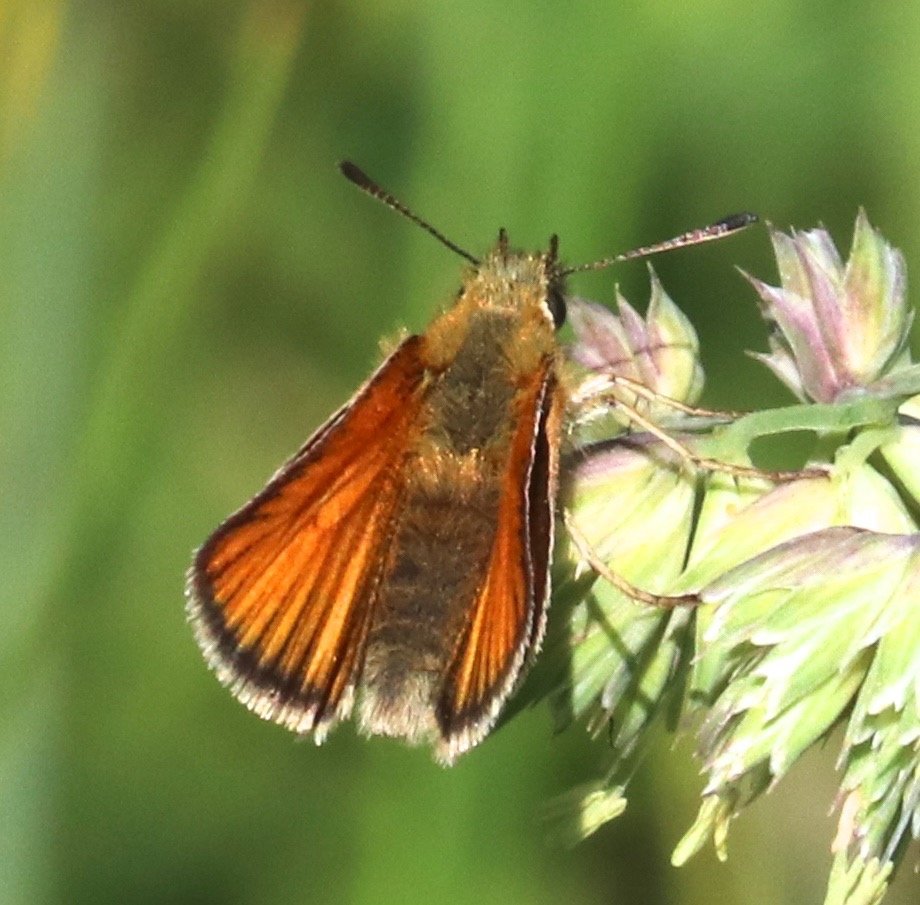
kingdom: Animalia
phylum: Arthropoda
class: Insecta
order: Lepidoptera
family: Hesperiidae
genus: Thymelicus
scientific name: Thymelicus lineola
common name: European Skipper
